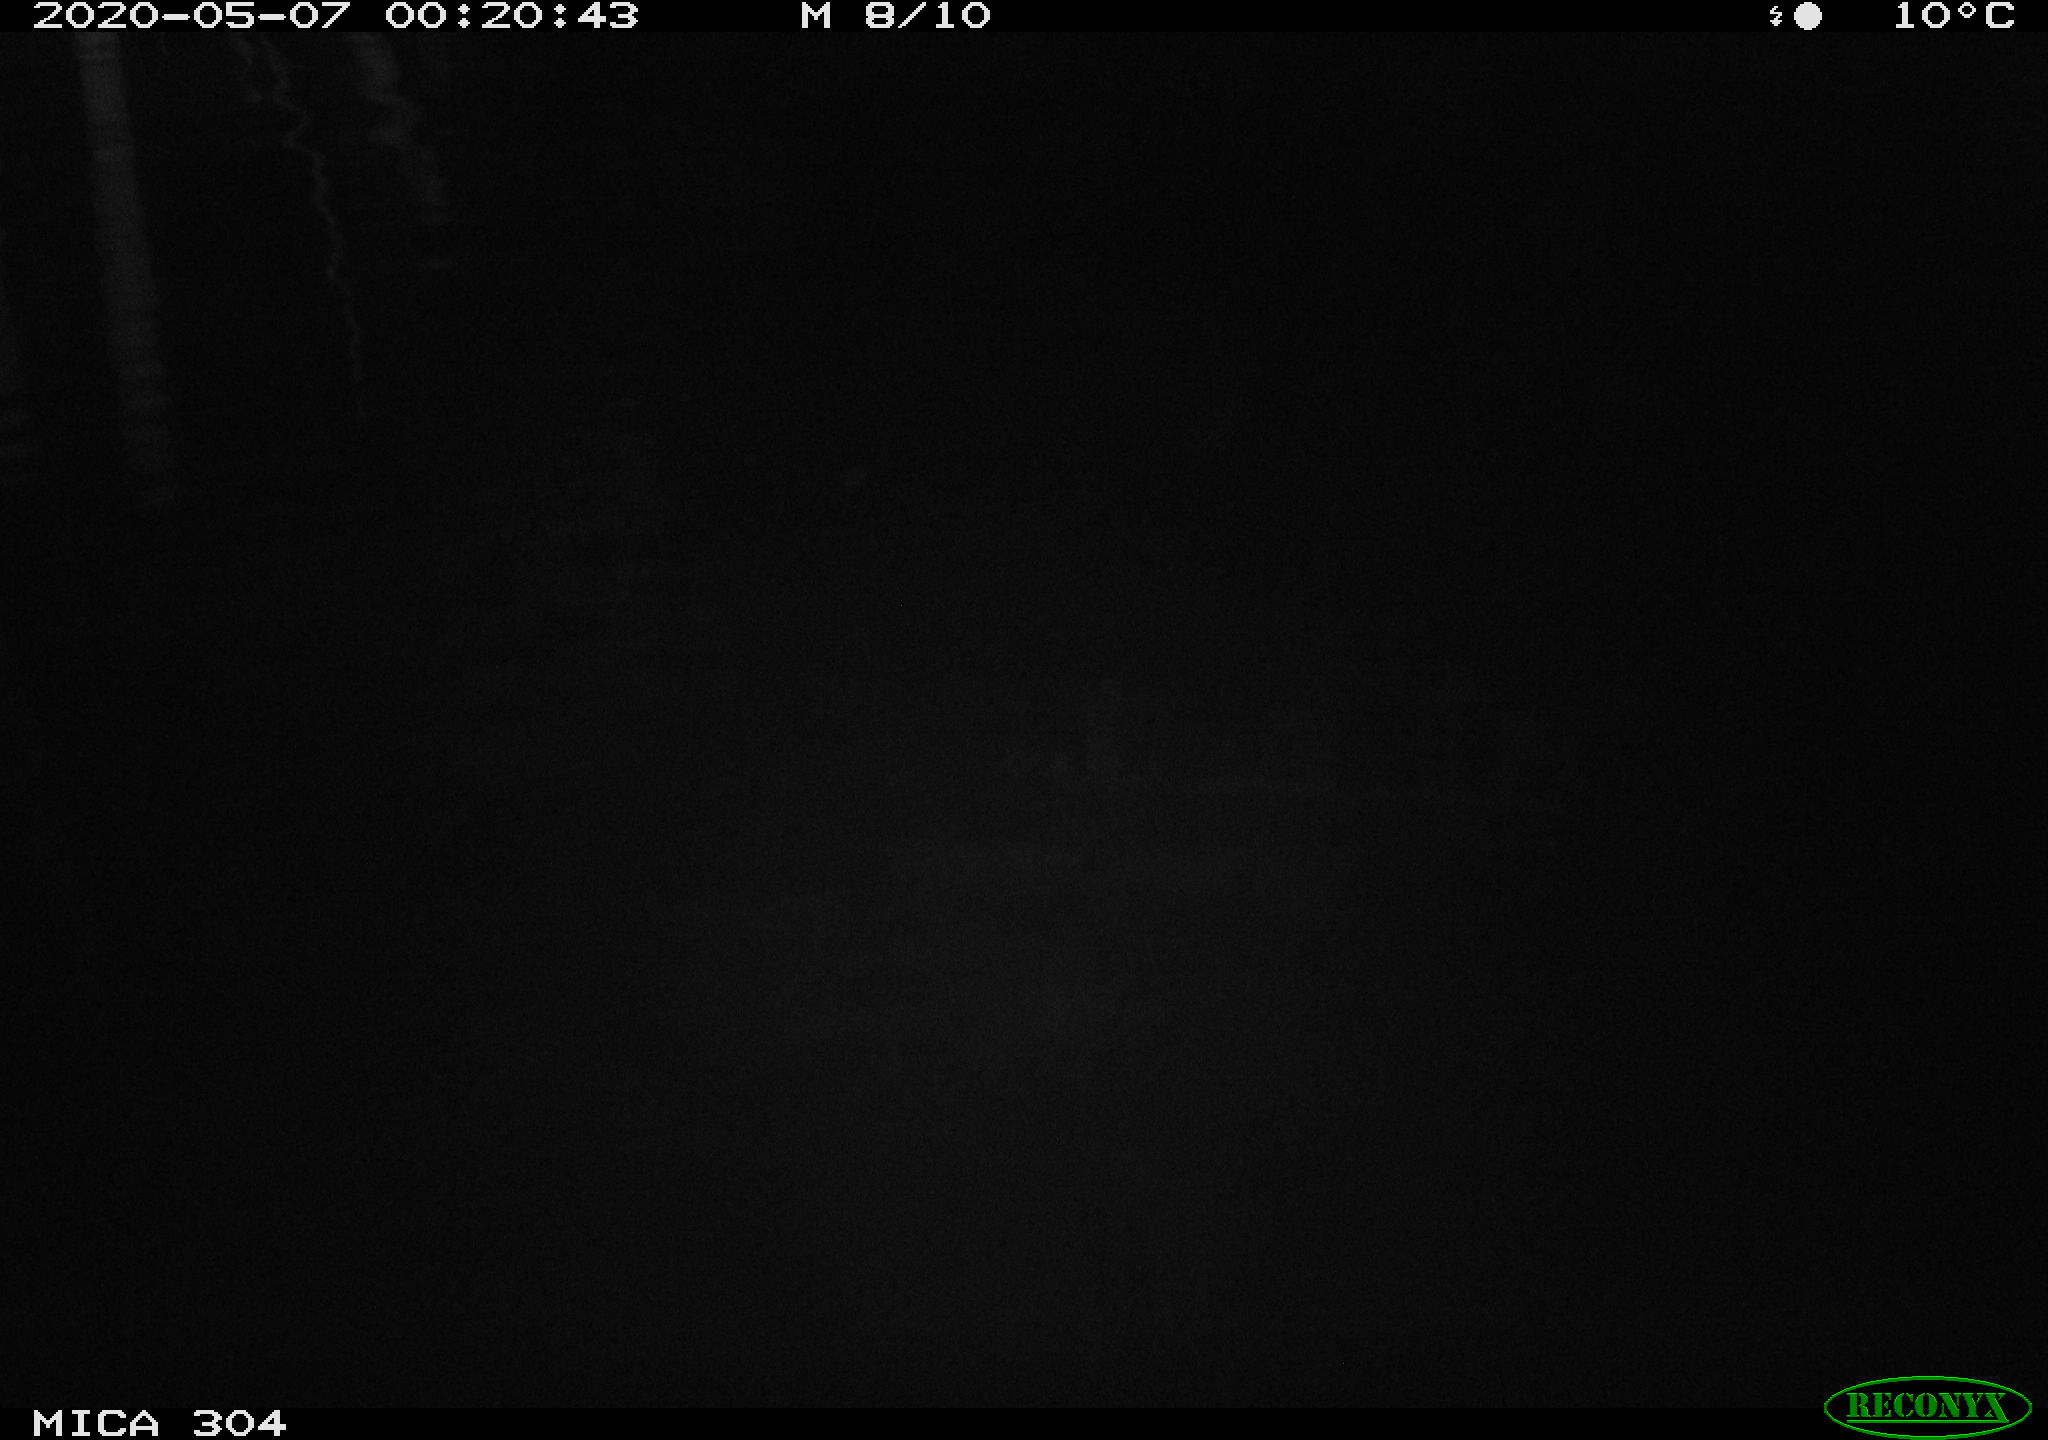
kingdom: Animalia
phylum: Chordata
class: Aves
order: Anseriformes
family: Anatidae
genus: Anas
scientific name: Anas platyrhynchos
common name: Mallard
